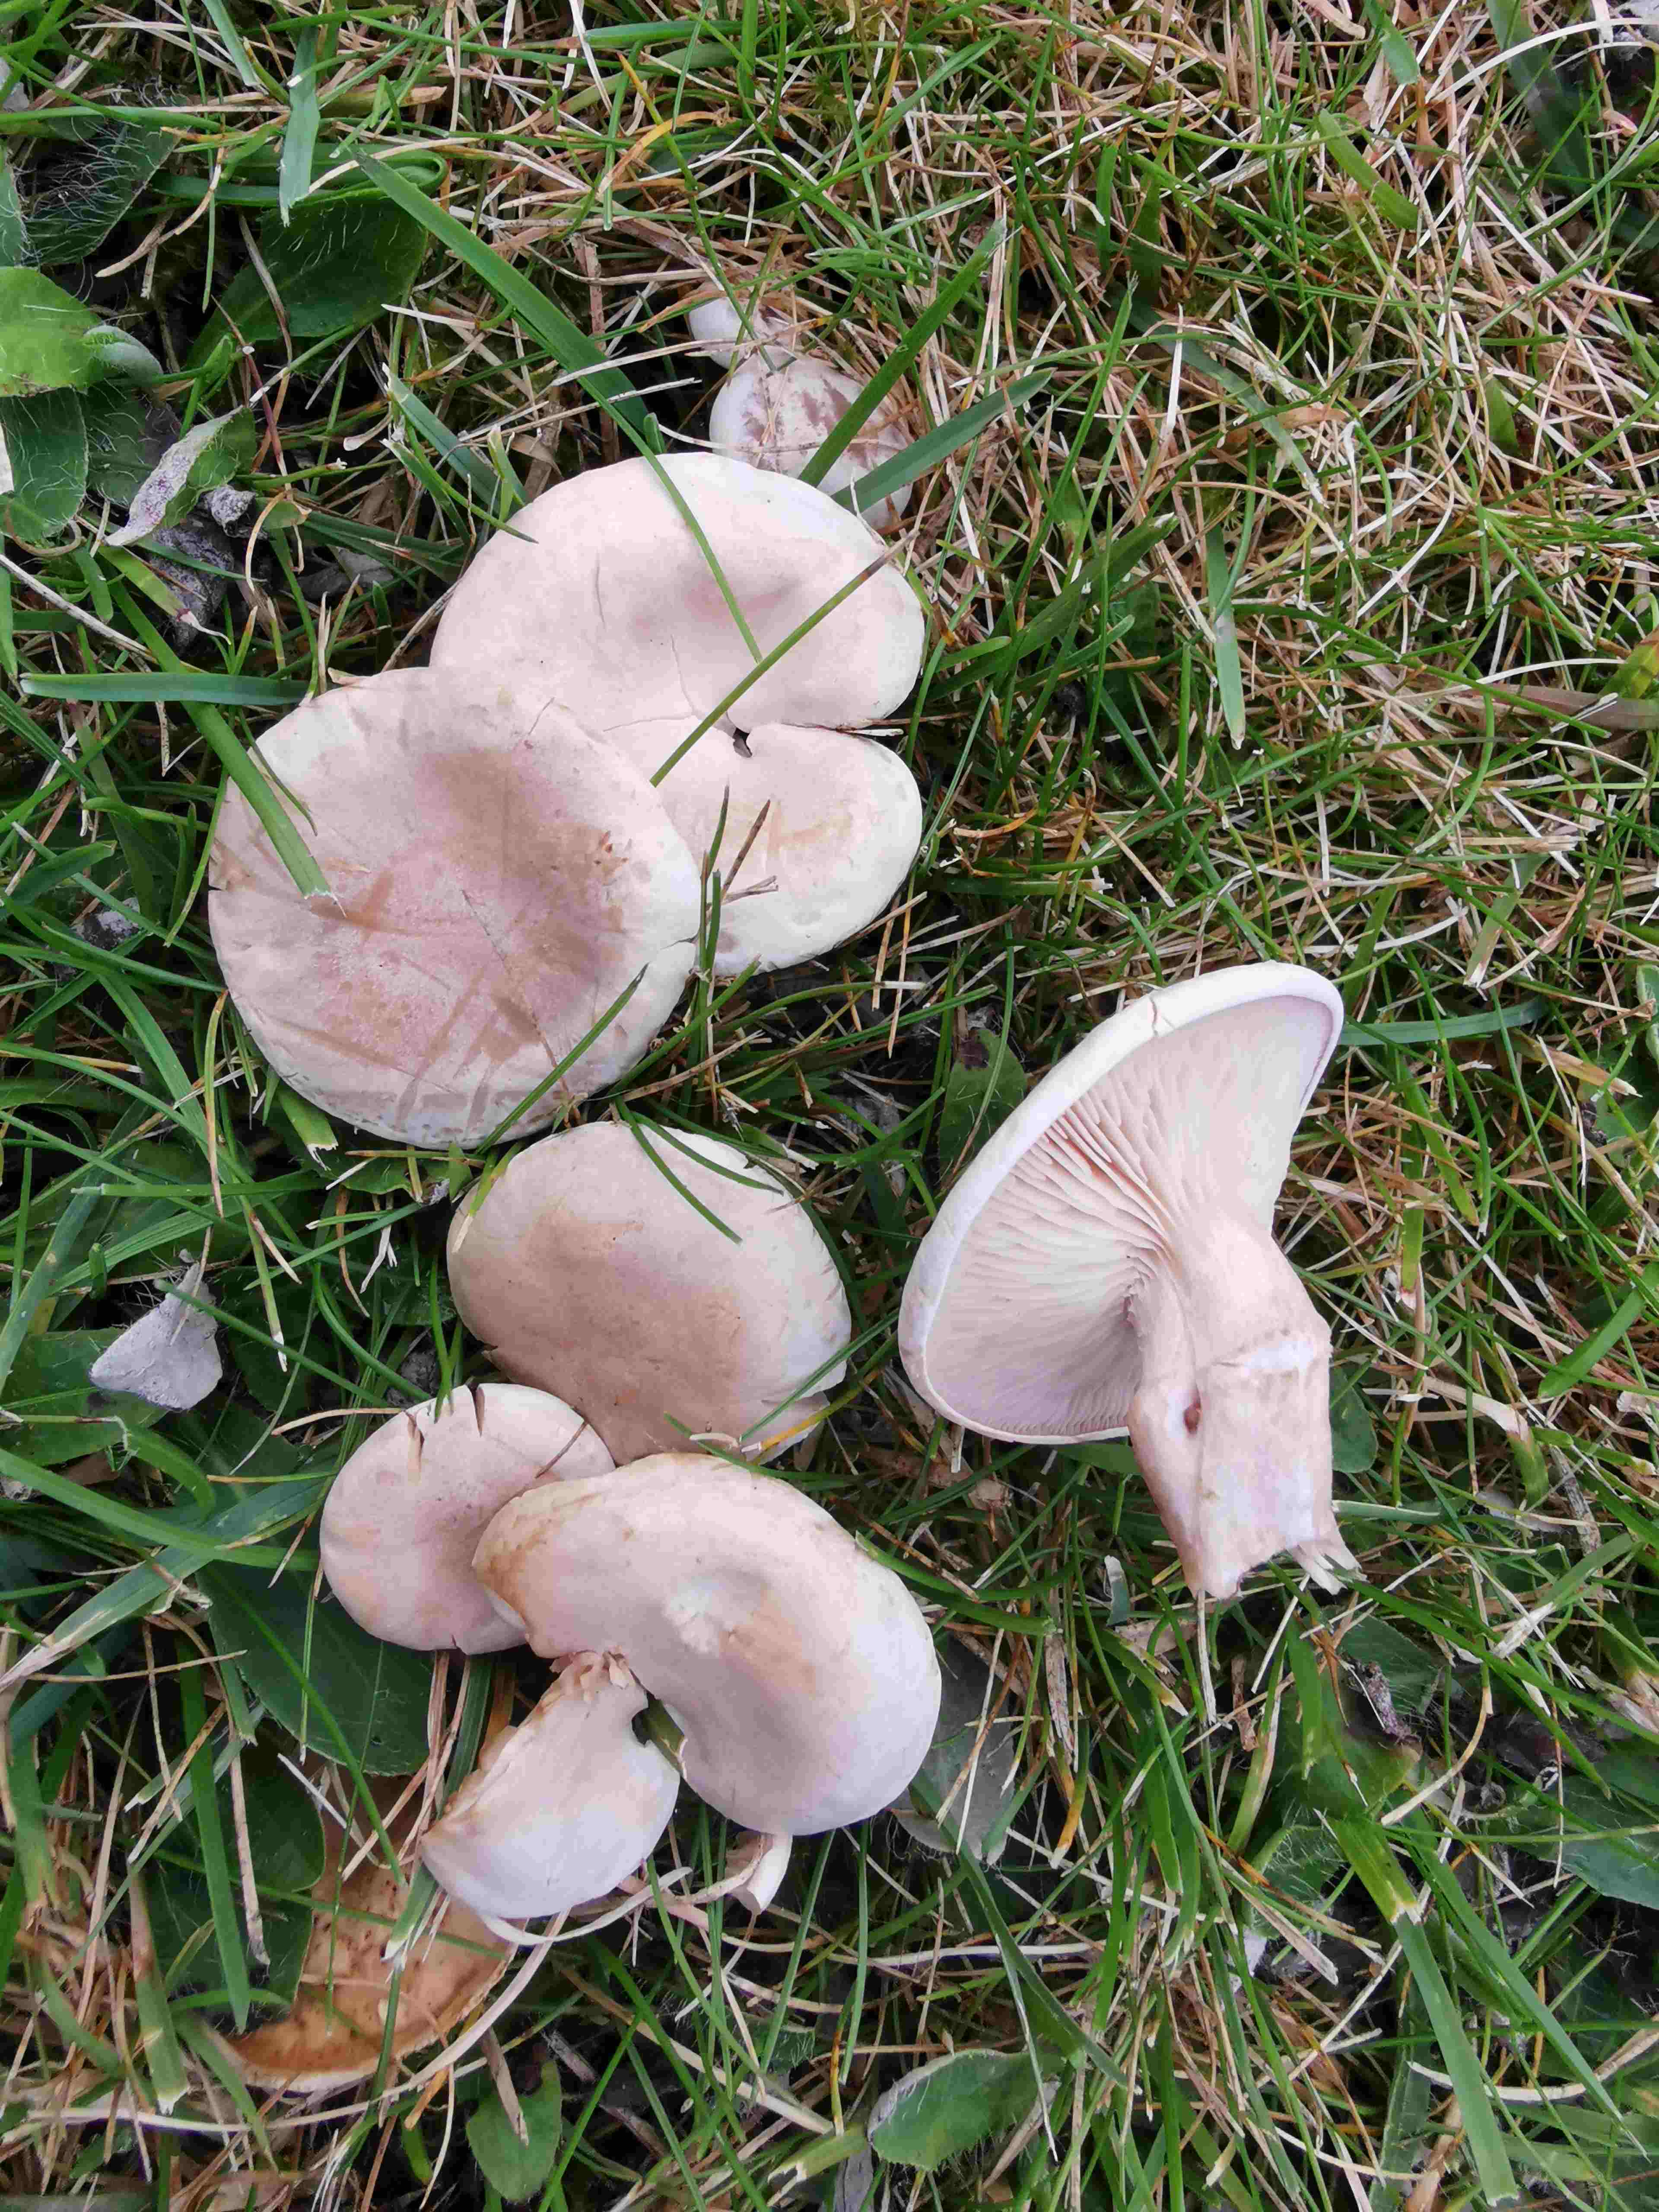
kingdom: Fungi
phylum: Basidiomycota
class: Agaricomycetes
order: Agaricales
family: Tricholomataceae
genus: Lepista
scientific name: Lepista
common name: hekseringshat
